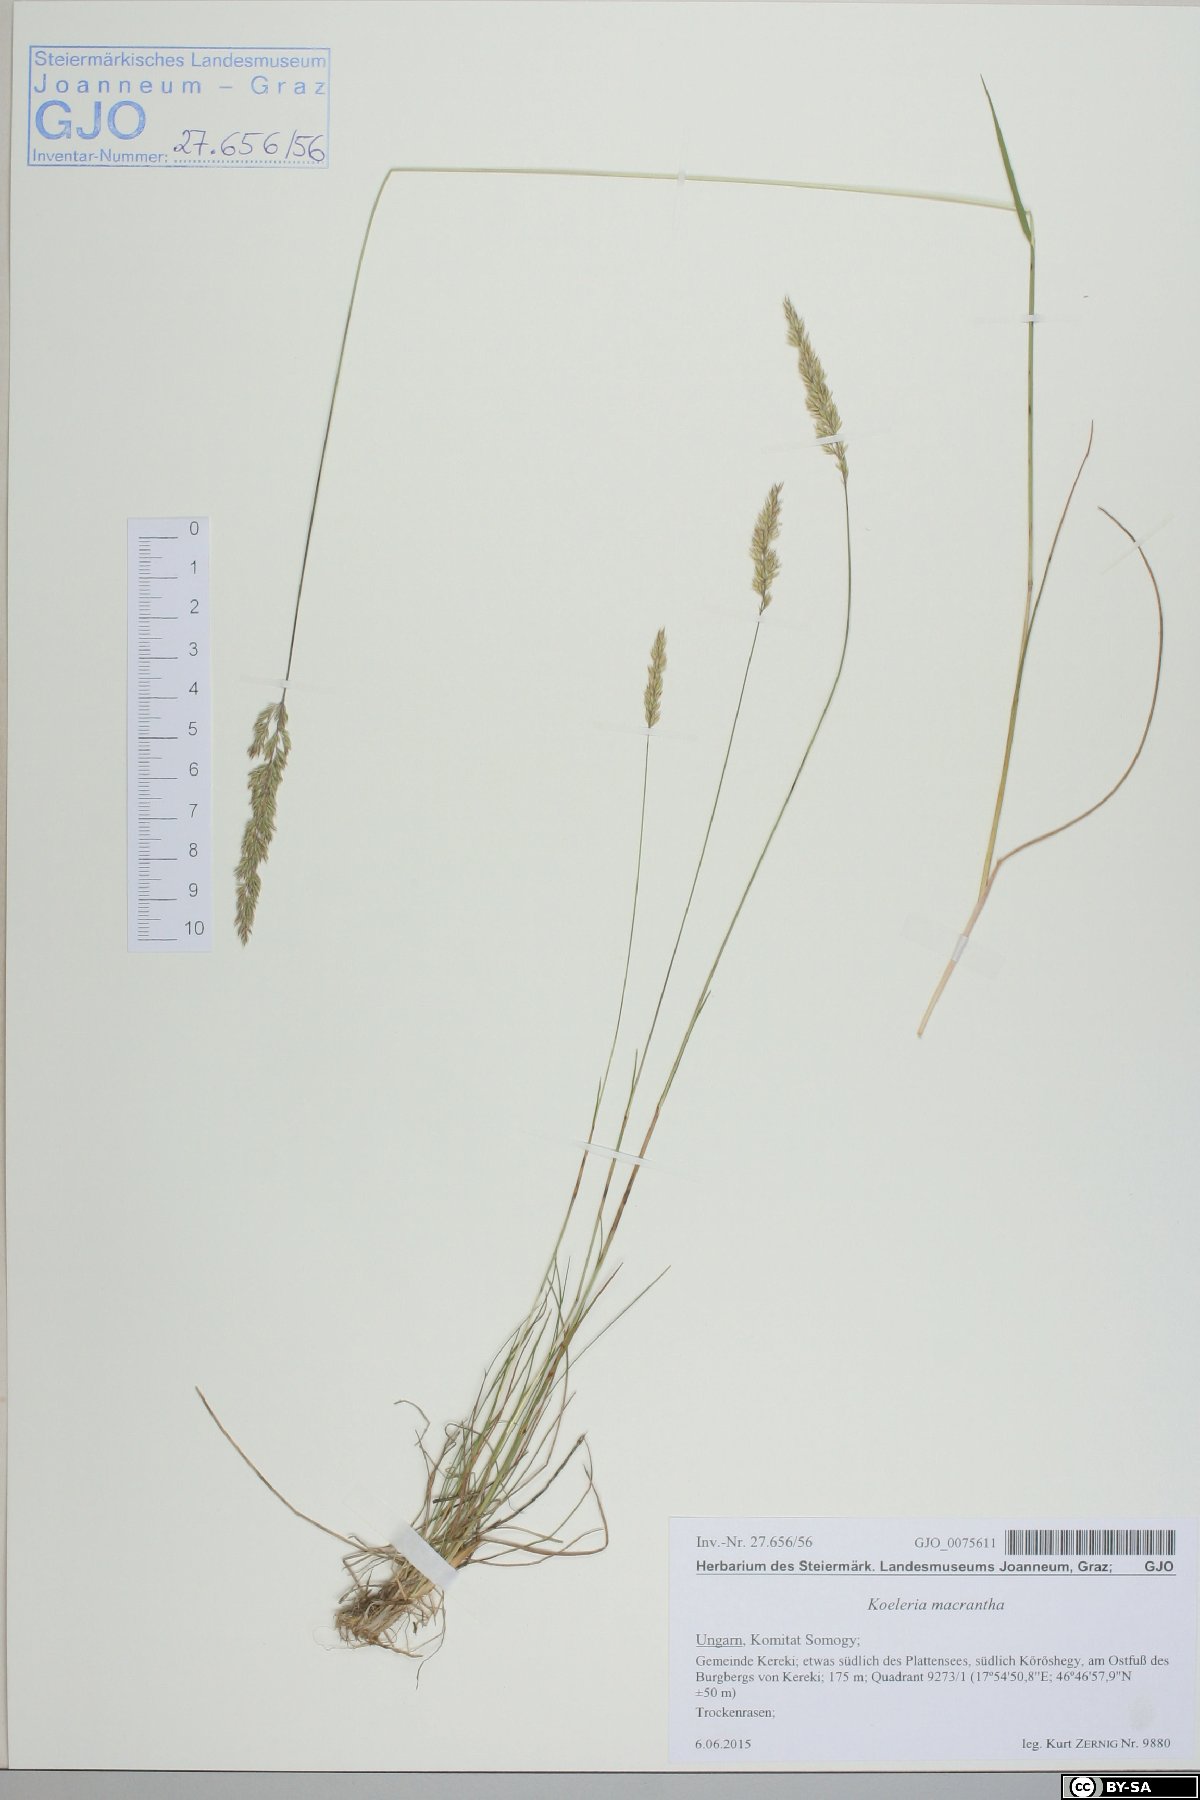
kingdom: Plantae
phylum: Tracheophyta
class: Liliopsida
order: Poales
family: Poaceae
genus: Koeleria
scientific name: Koeleria macrantha
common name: Crested hair-grass
